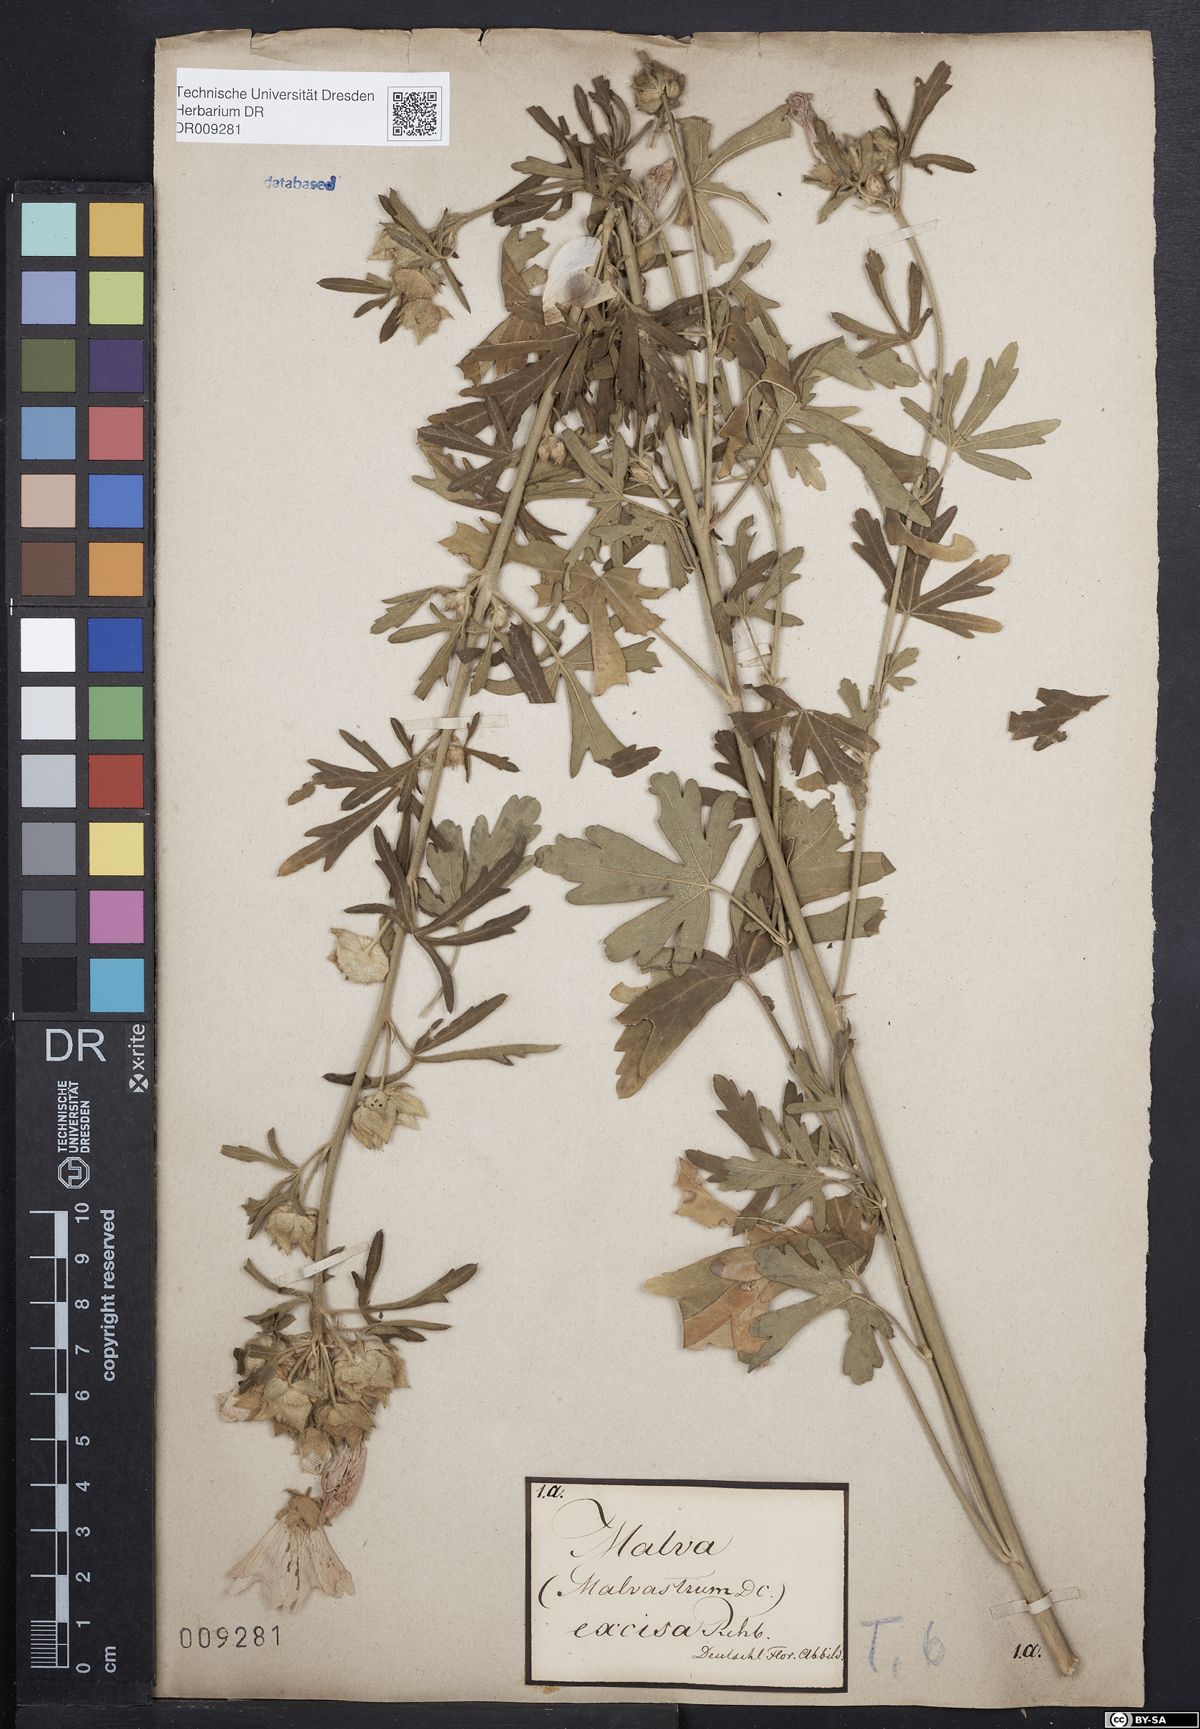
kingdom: Plantae
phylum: Tracheophyta
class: Magnoliopsida
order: Malvales
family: Malvaceae
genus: Malva
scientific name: Malva alcea
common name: Greater musk-mallow
